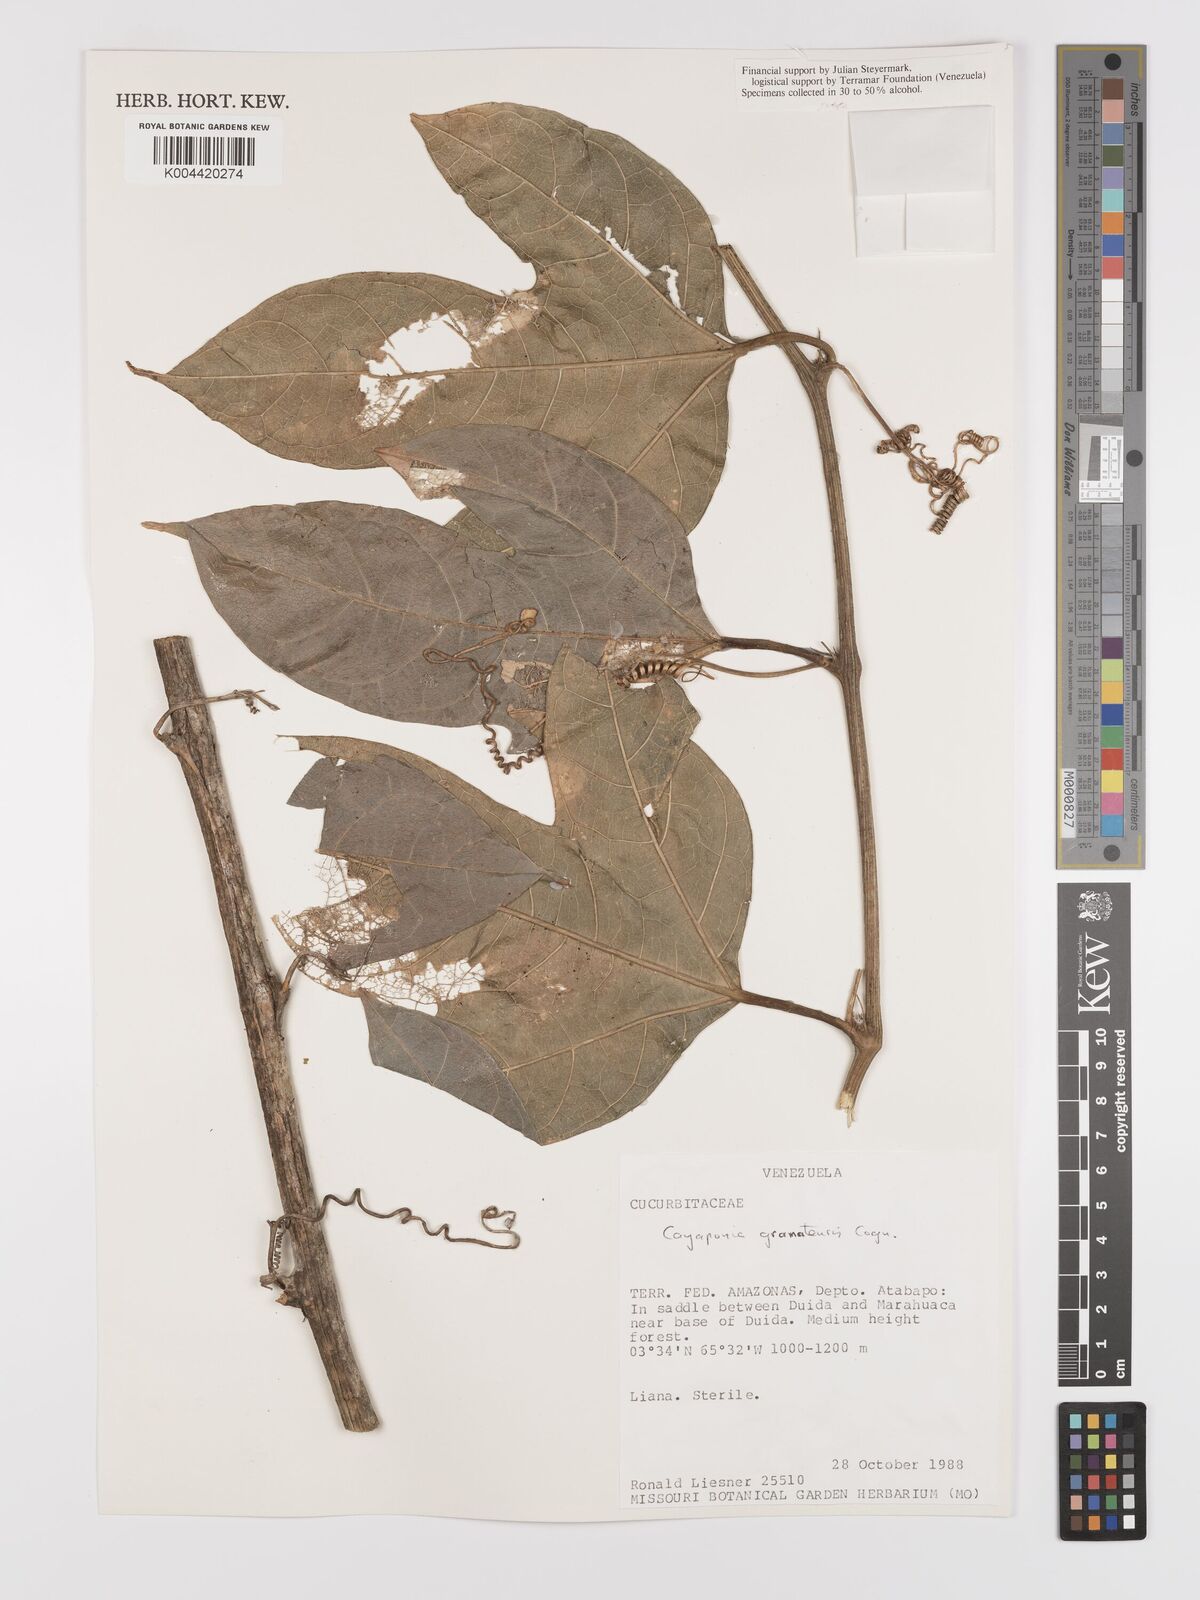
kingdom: Plantae
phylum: Tracheophyta
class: Magnoliopsida
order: Cucurbitales
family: Cucurbitaceae
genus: Cayaponia
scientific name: Cayaponia granatensis
